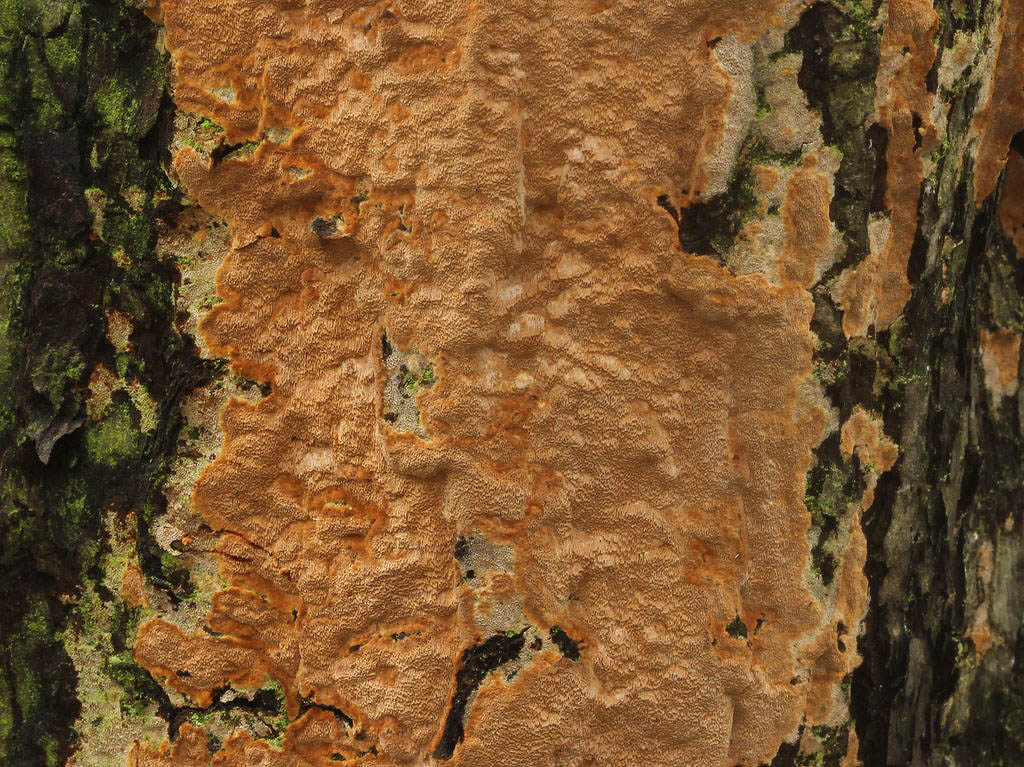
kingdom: Fungi
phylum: Basidiomycota
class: Agaricomycetes
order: Hymenochaetales
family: Hymenochaetaceae
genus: Fuscoporia
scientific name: Fuscoporia ferrea
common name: skorpe-ildporesvamp
